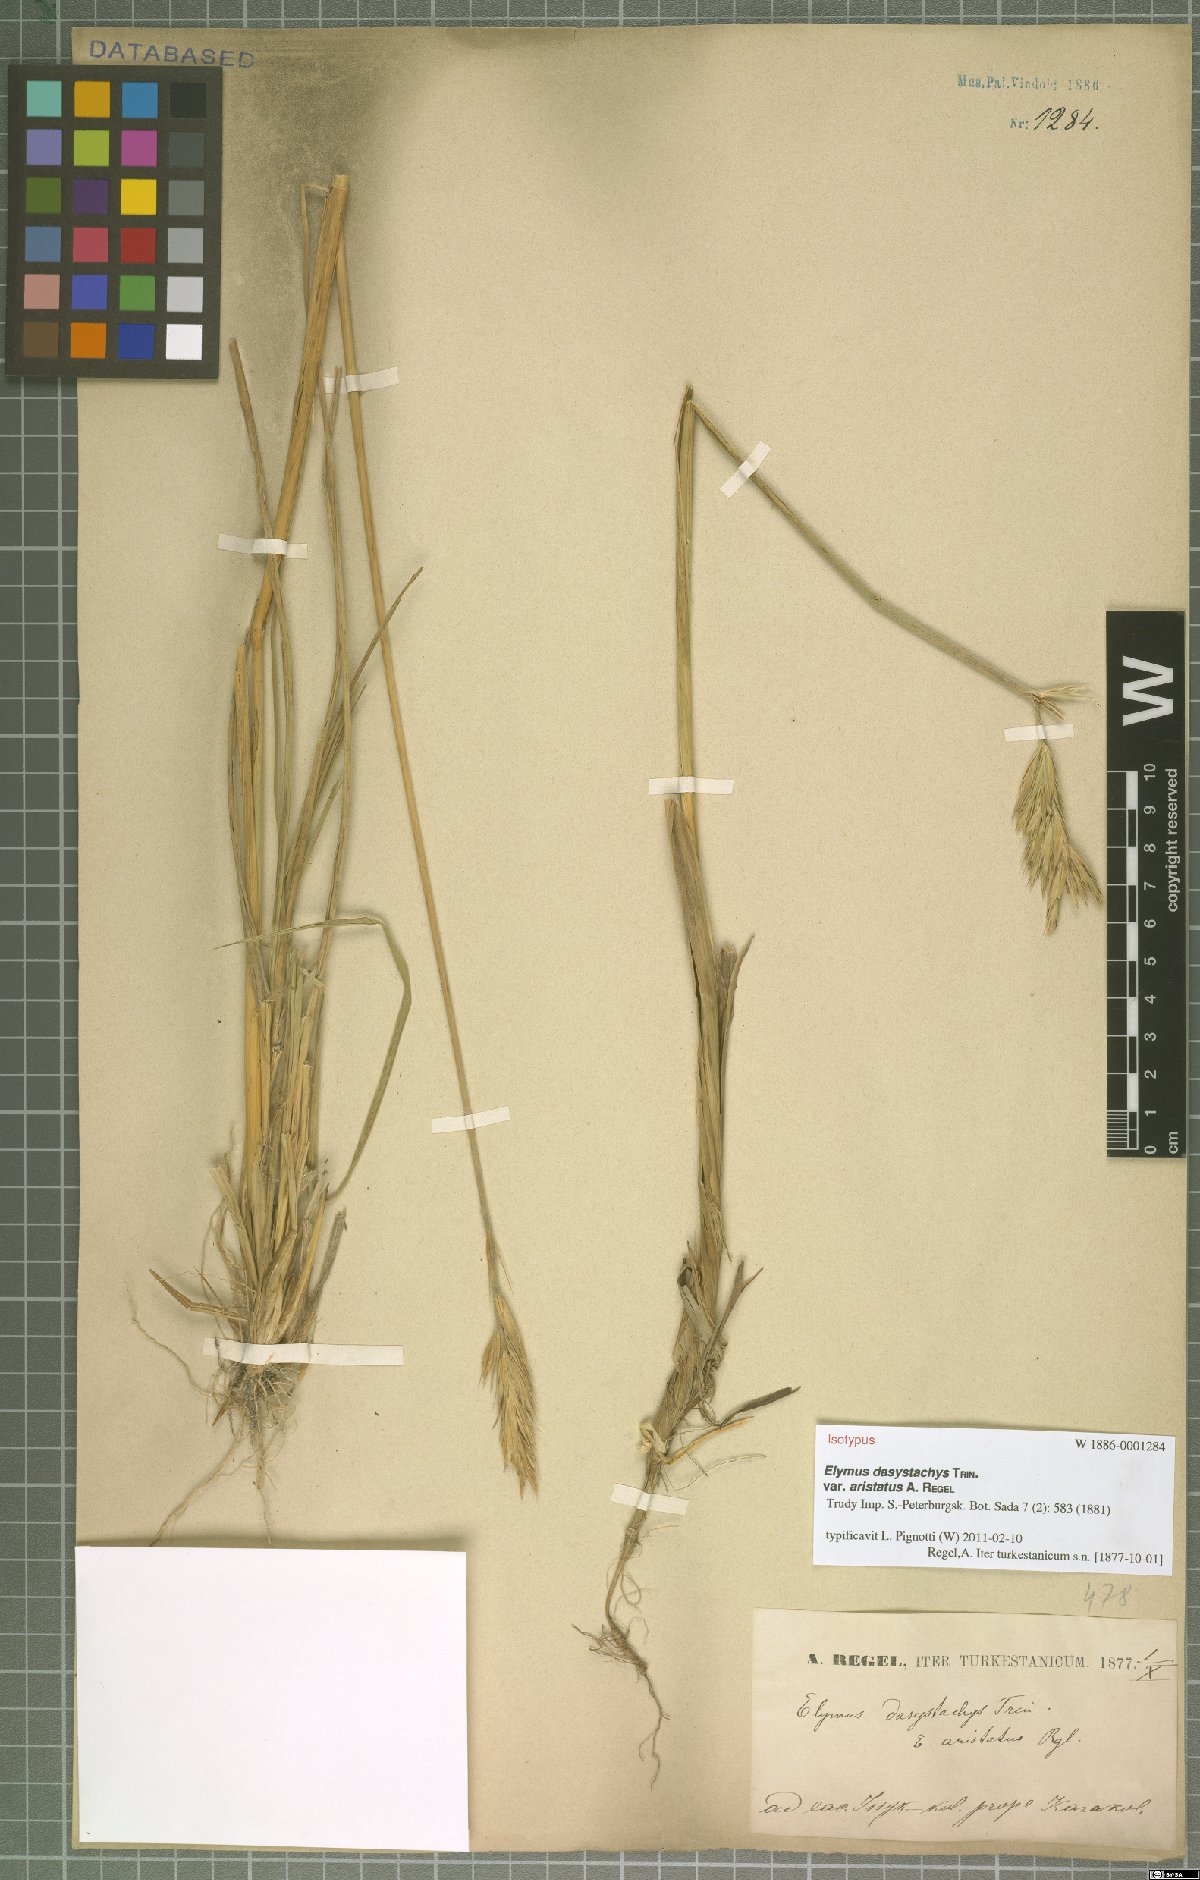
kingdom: Plantae
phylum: Tracheophyta
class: Liliopsida
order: Poales
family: Poaceae
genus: Leymus
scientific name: Leymus secalinus
